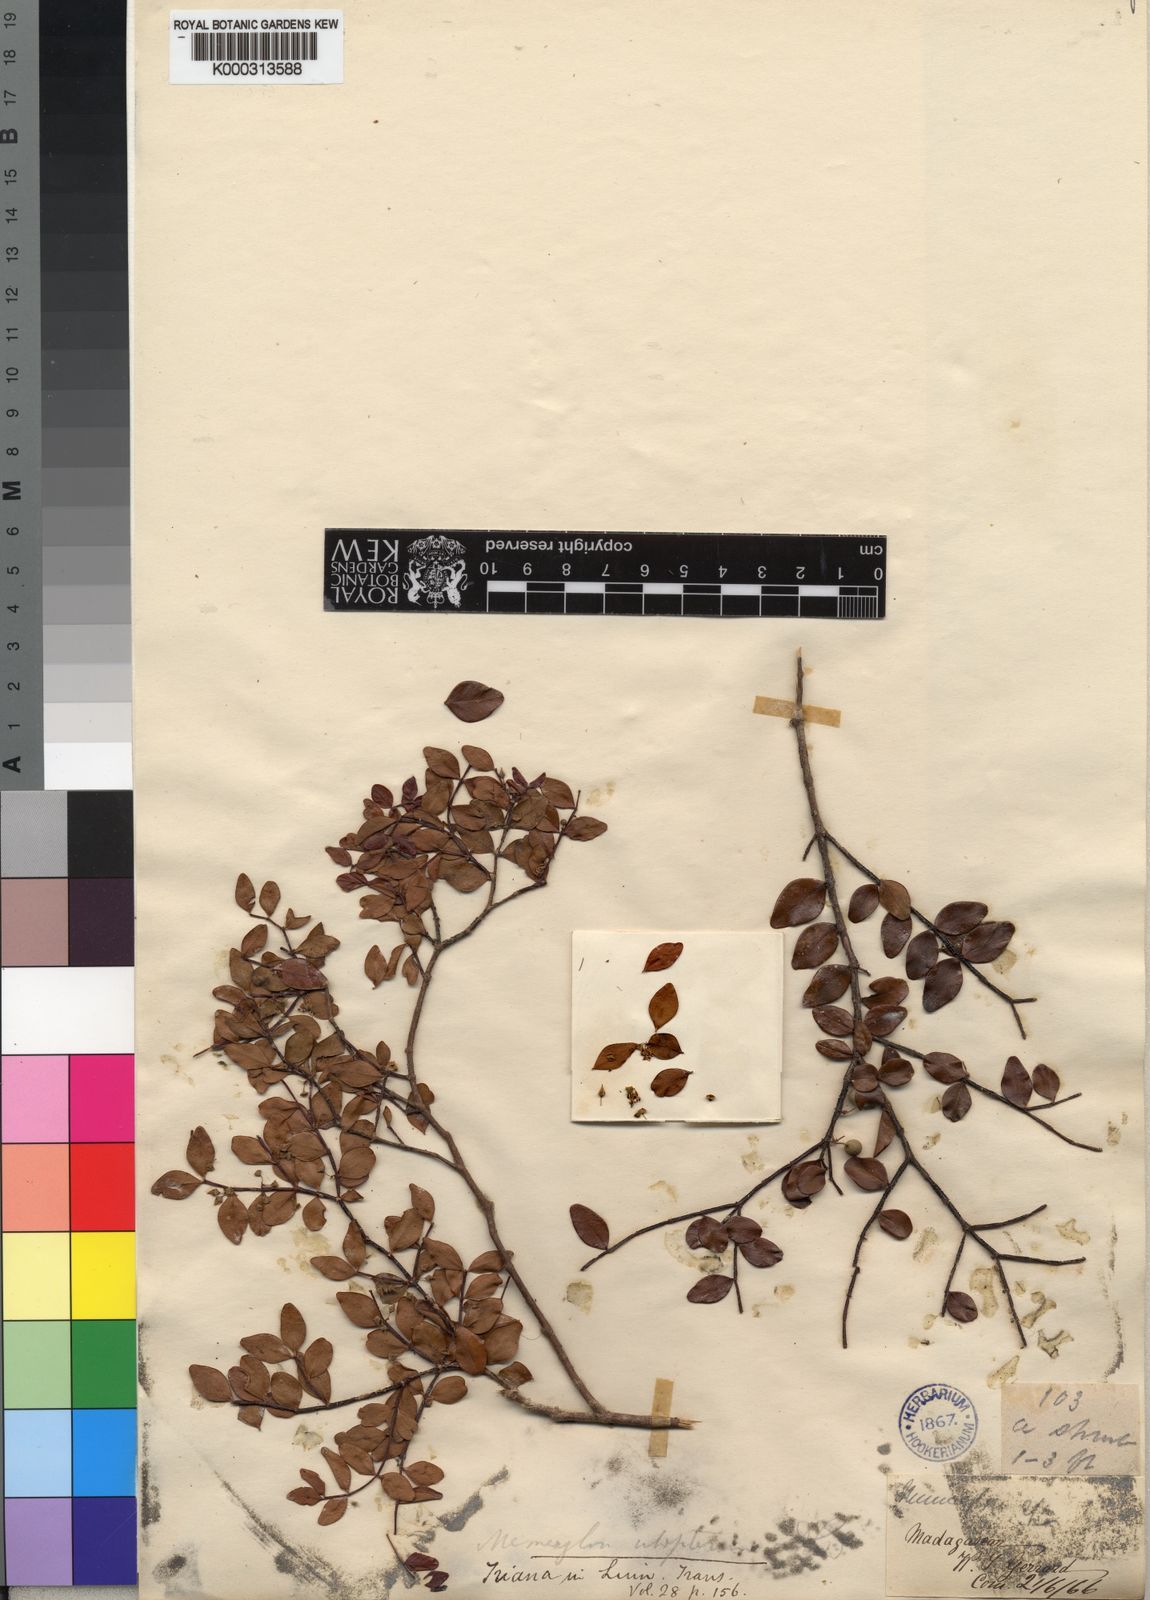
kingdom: Plantae
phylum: Tracheophyta
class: Magnoliopsida
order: Myrtales
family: Melastomataceae
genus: Memecylon
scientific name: Memecylon ulopterum
